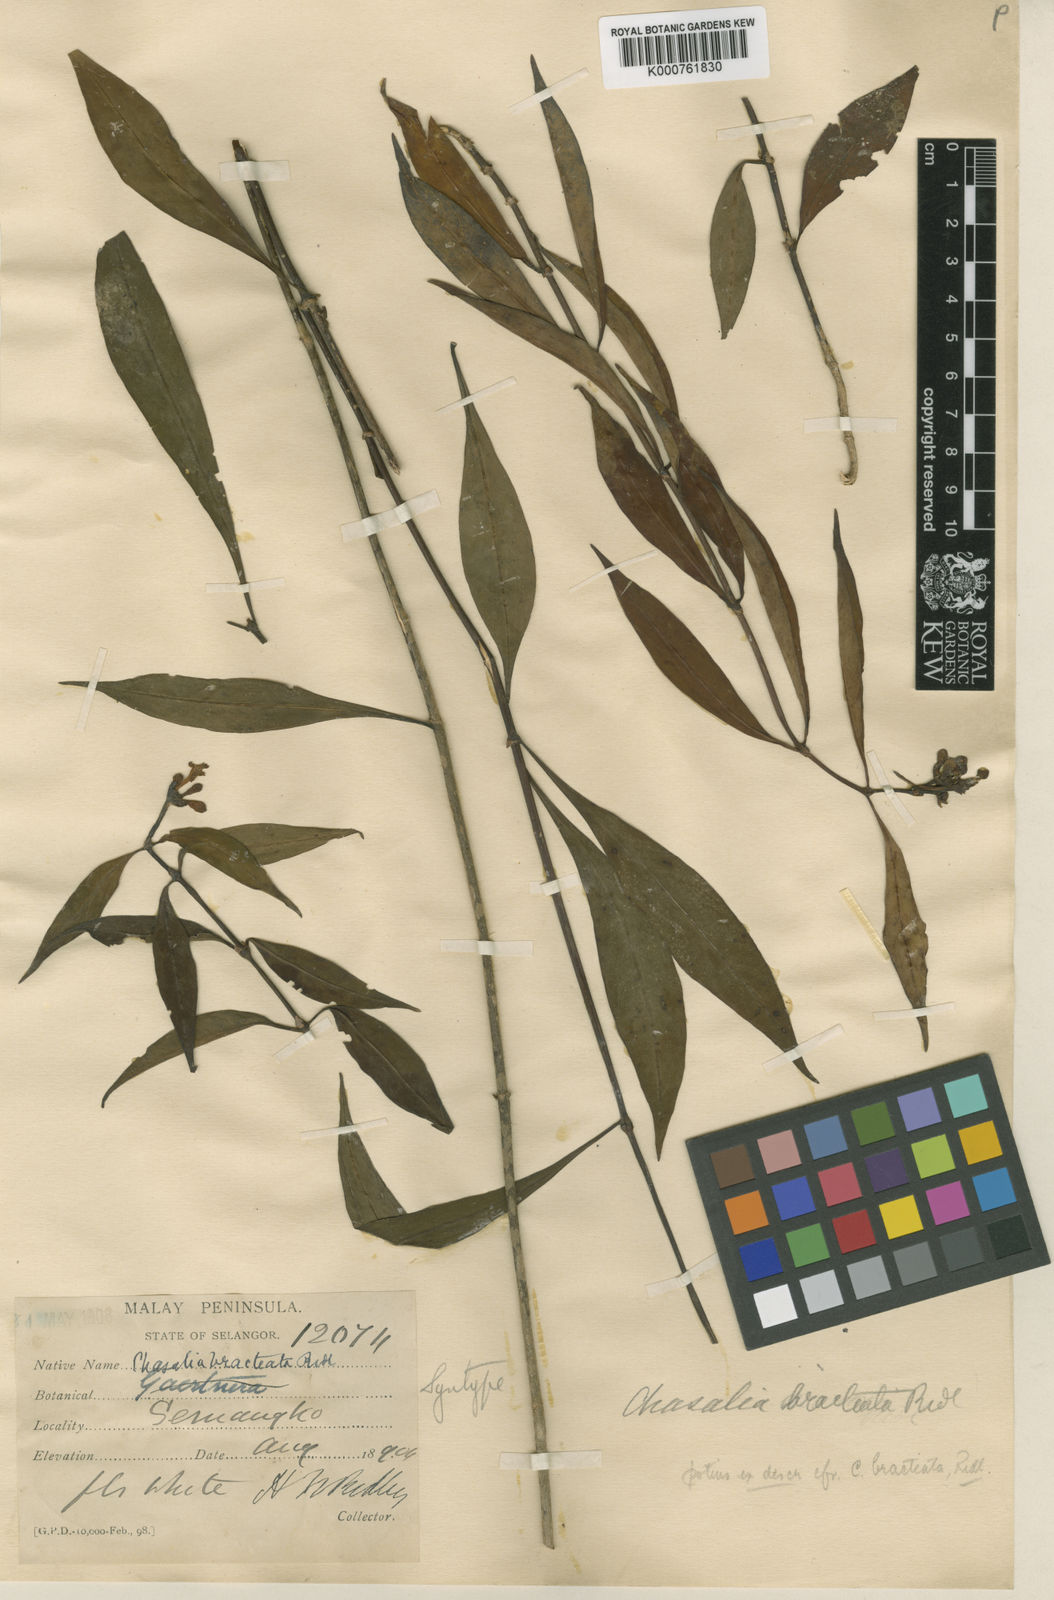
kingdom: Plantae
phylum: Tracheophyta
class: Magnoliopsida
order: Gentianales
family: Rubiaceae
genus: Chassalia
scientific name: Chassalia bracteata
